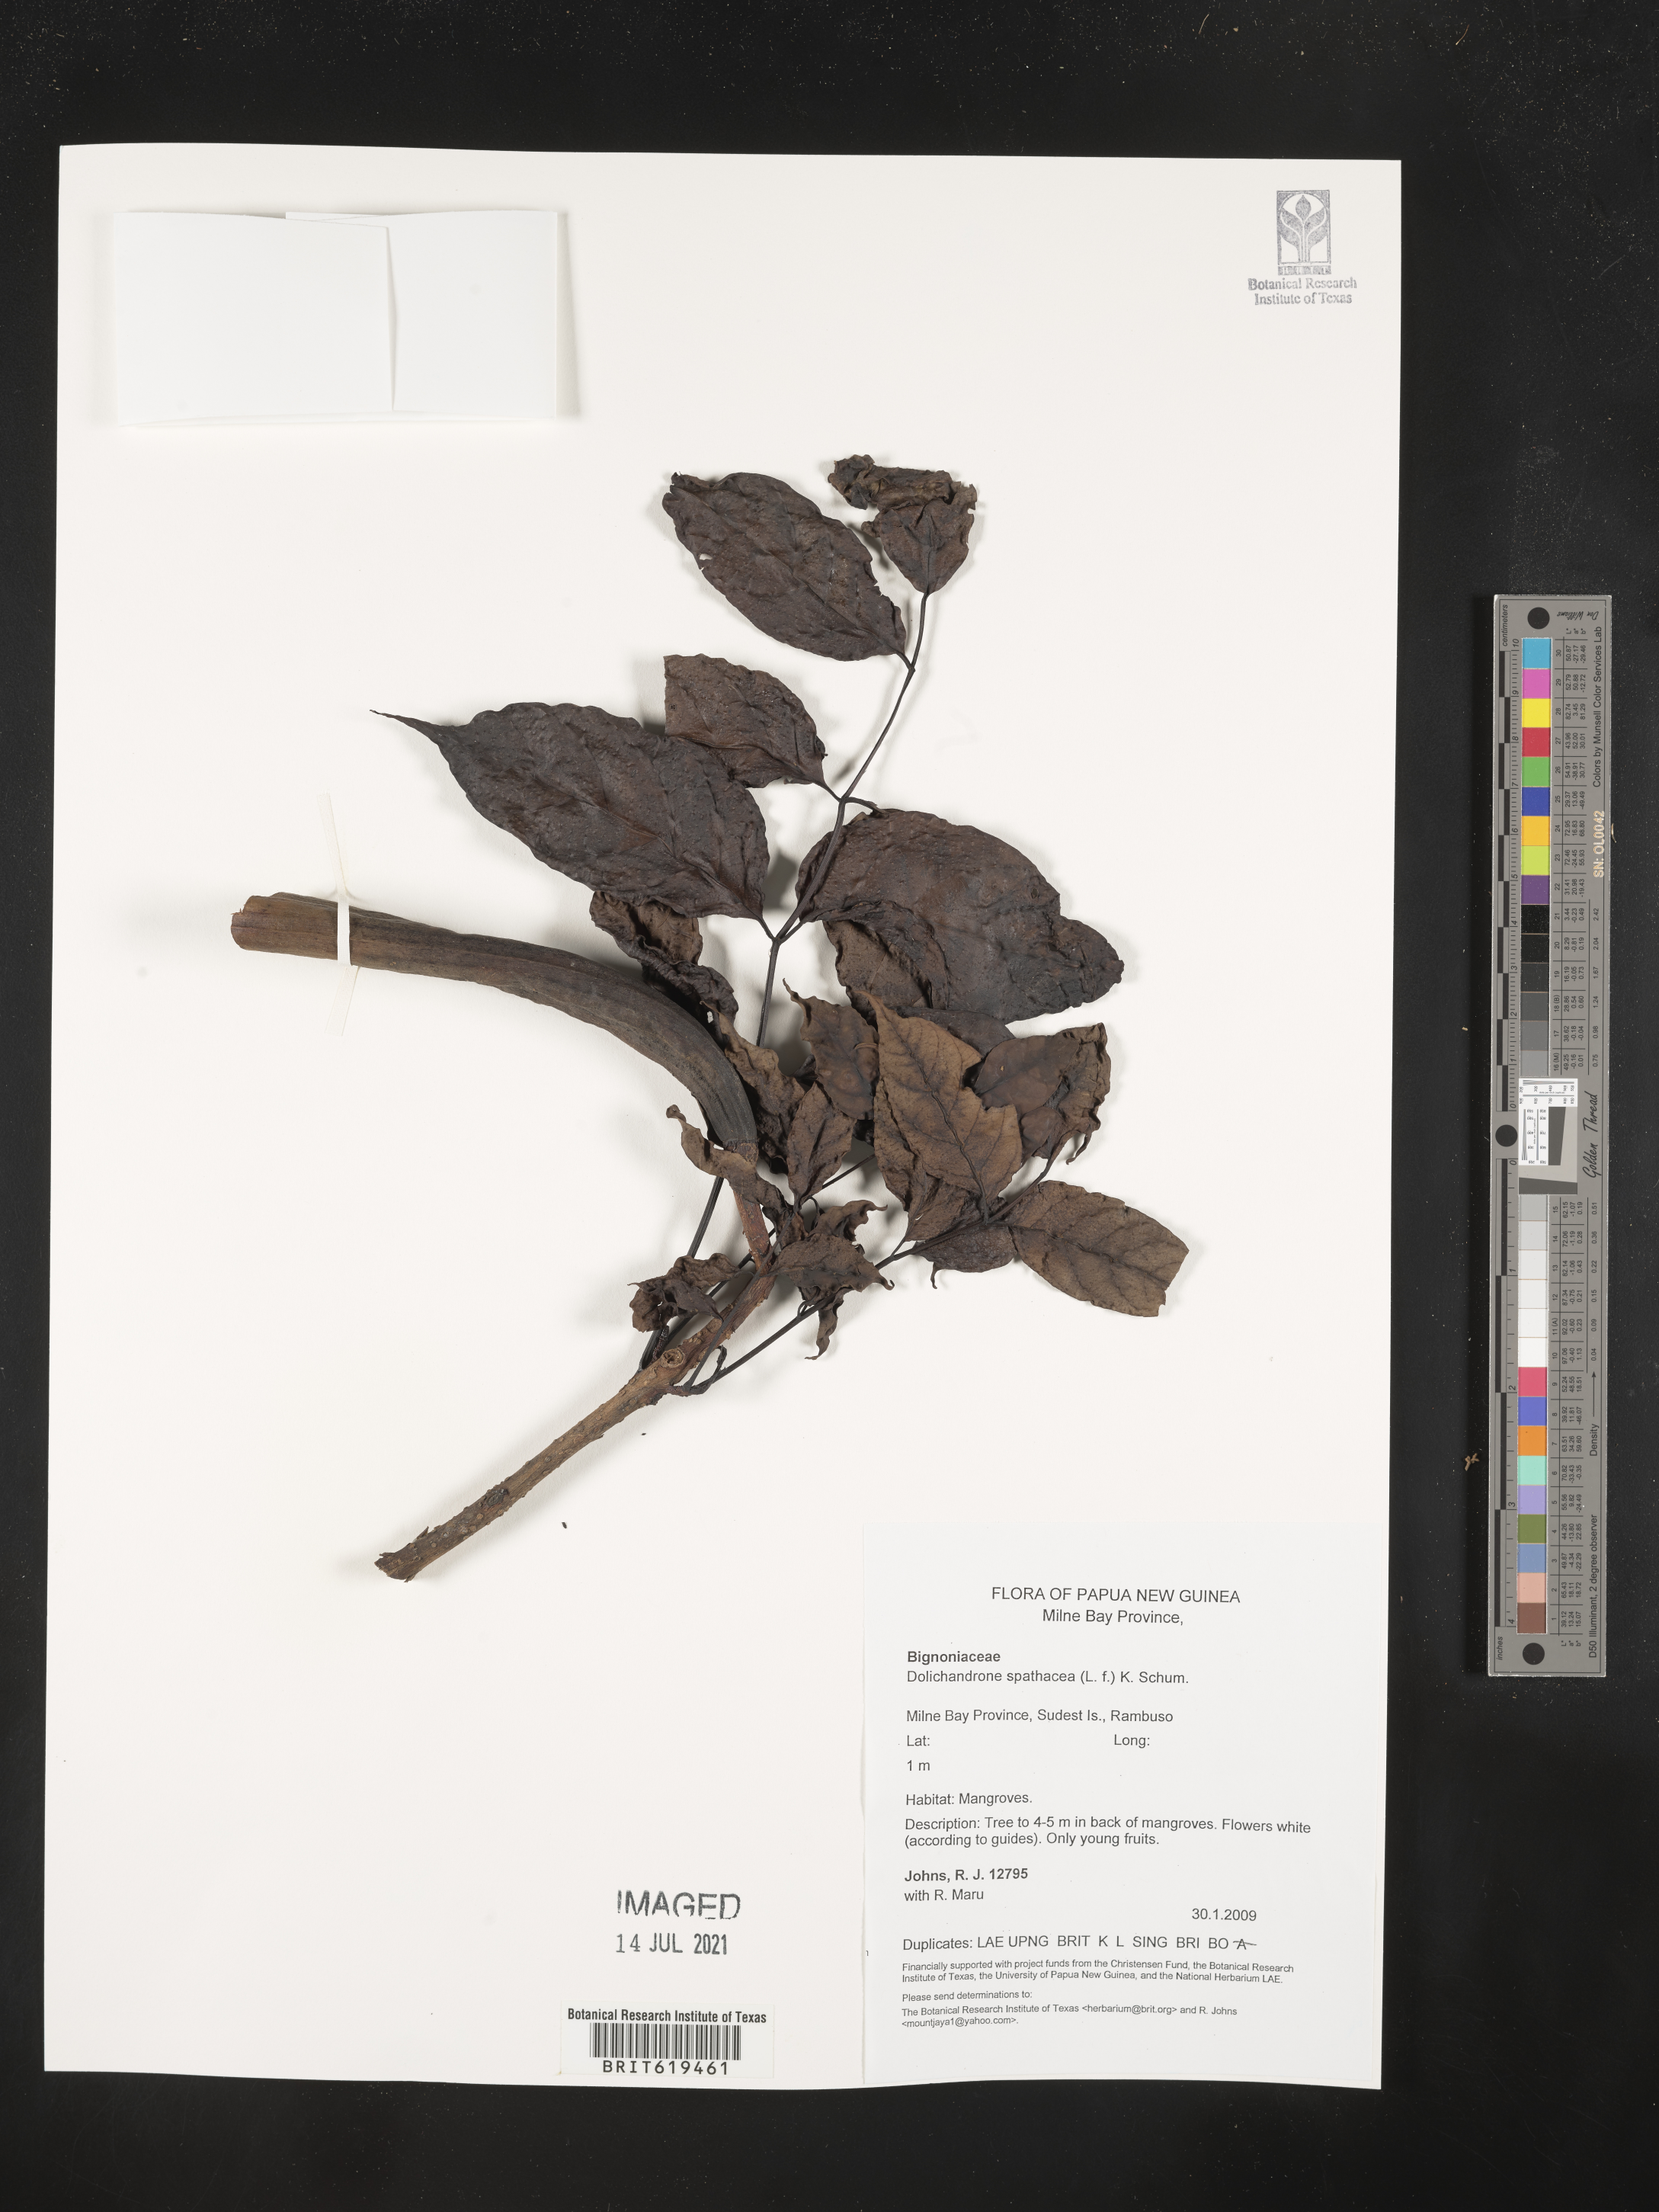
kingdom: Plantae
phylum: Tracheophyta
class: Magnoliopsida
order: Lamiales
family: Bignoniaceae
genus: Dolichandrone
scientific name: Dolichandrone spathacea
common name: Mangrove trumpet-tree
